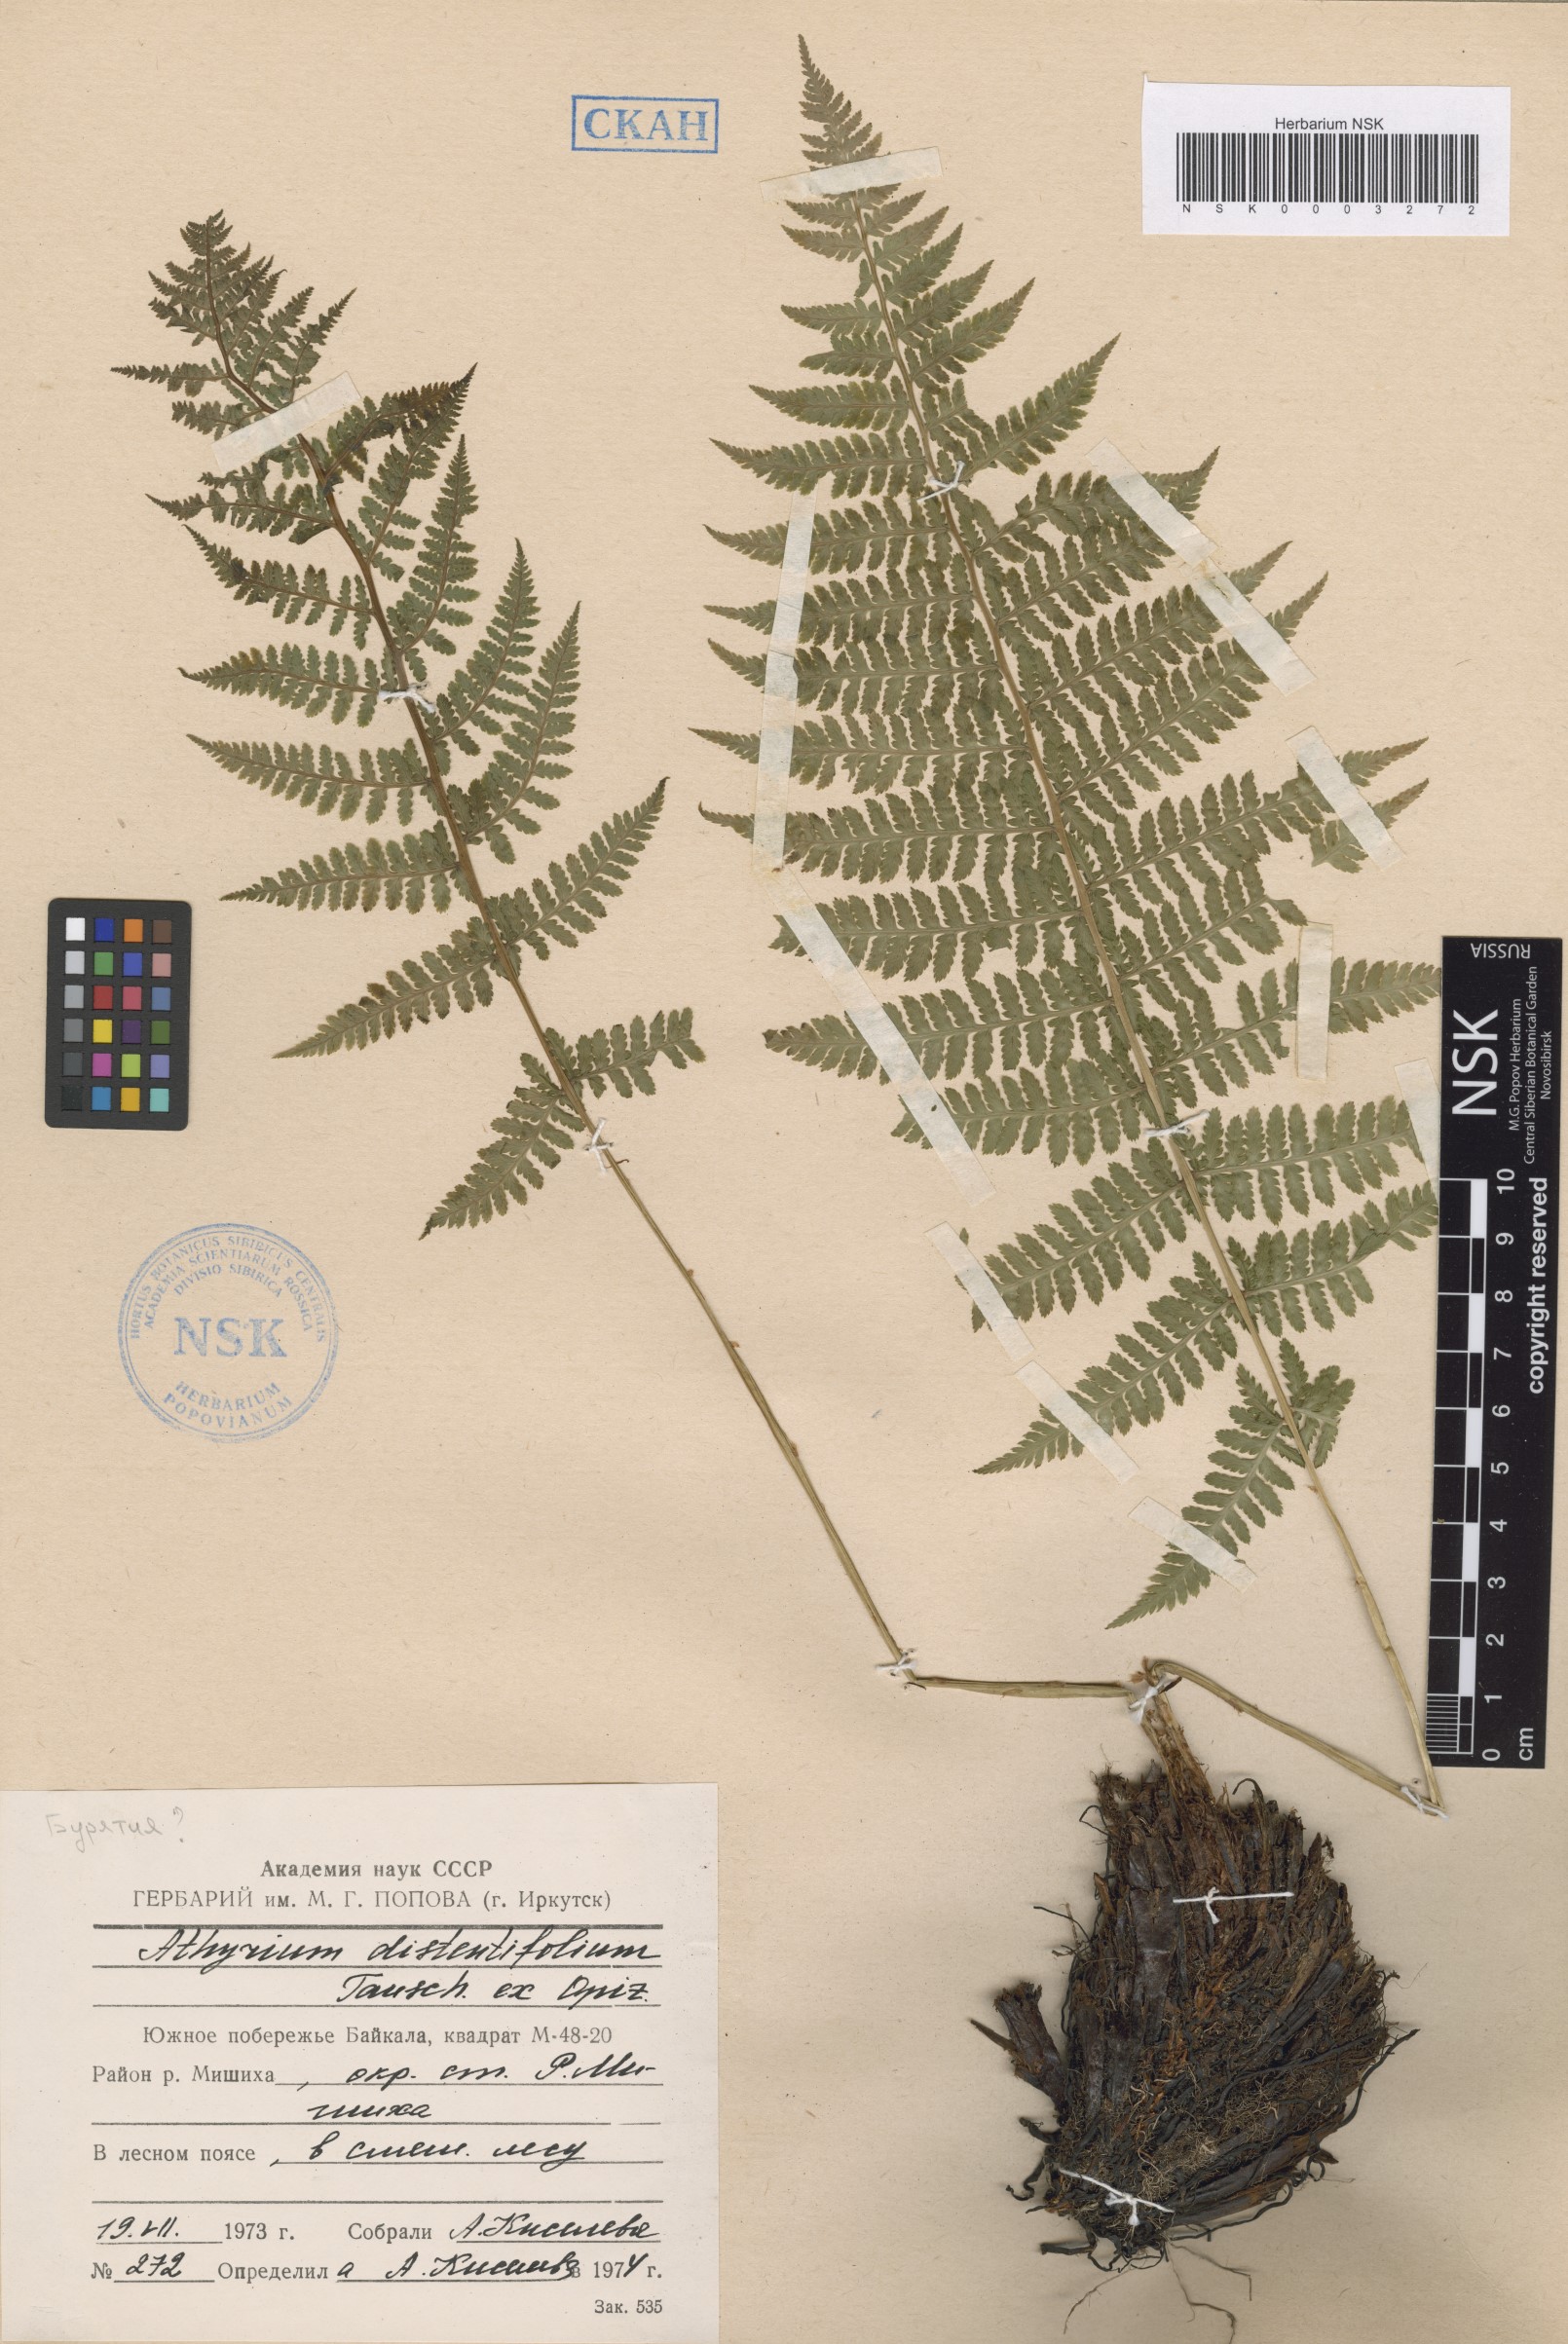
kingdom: Plantae
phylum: Tracheophyta
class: Polypodiopsida
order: Polypodiales
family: Athyriaceae
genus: Pseudathyrium
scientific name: Pseudathyrium alpestre
